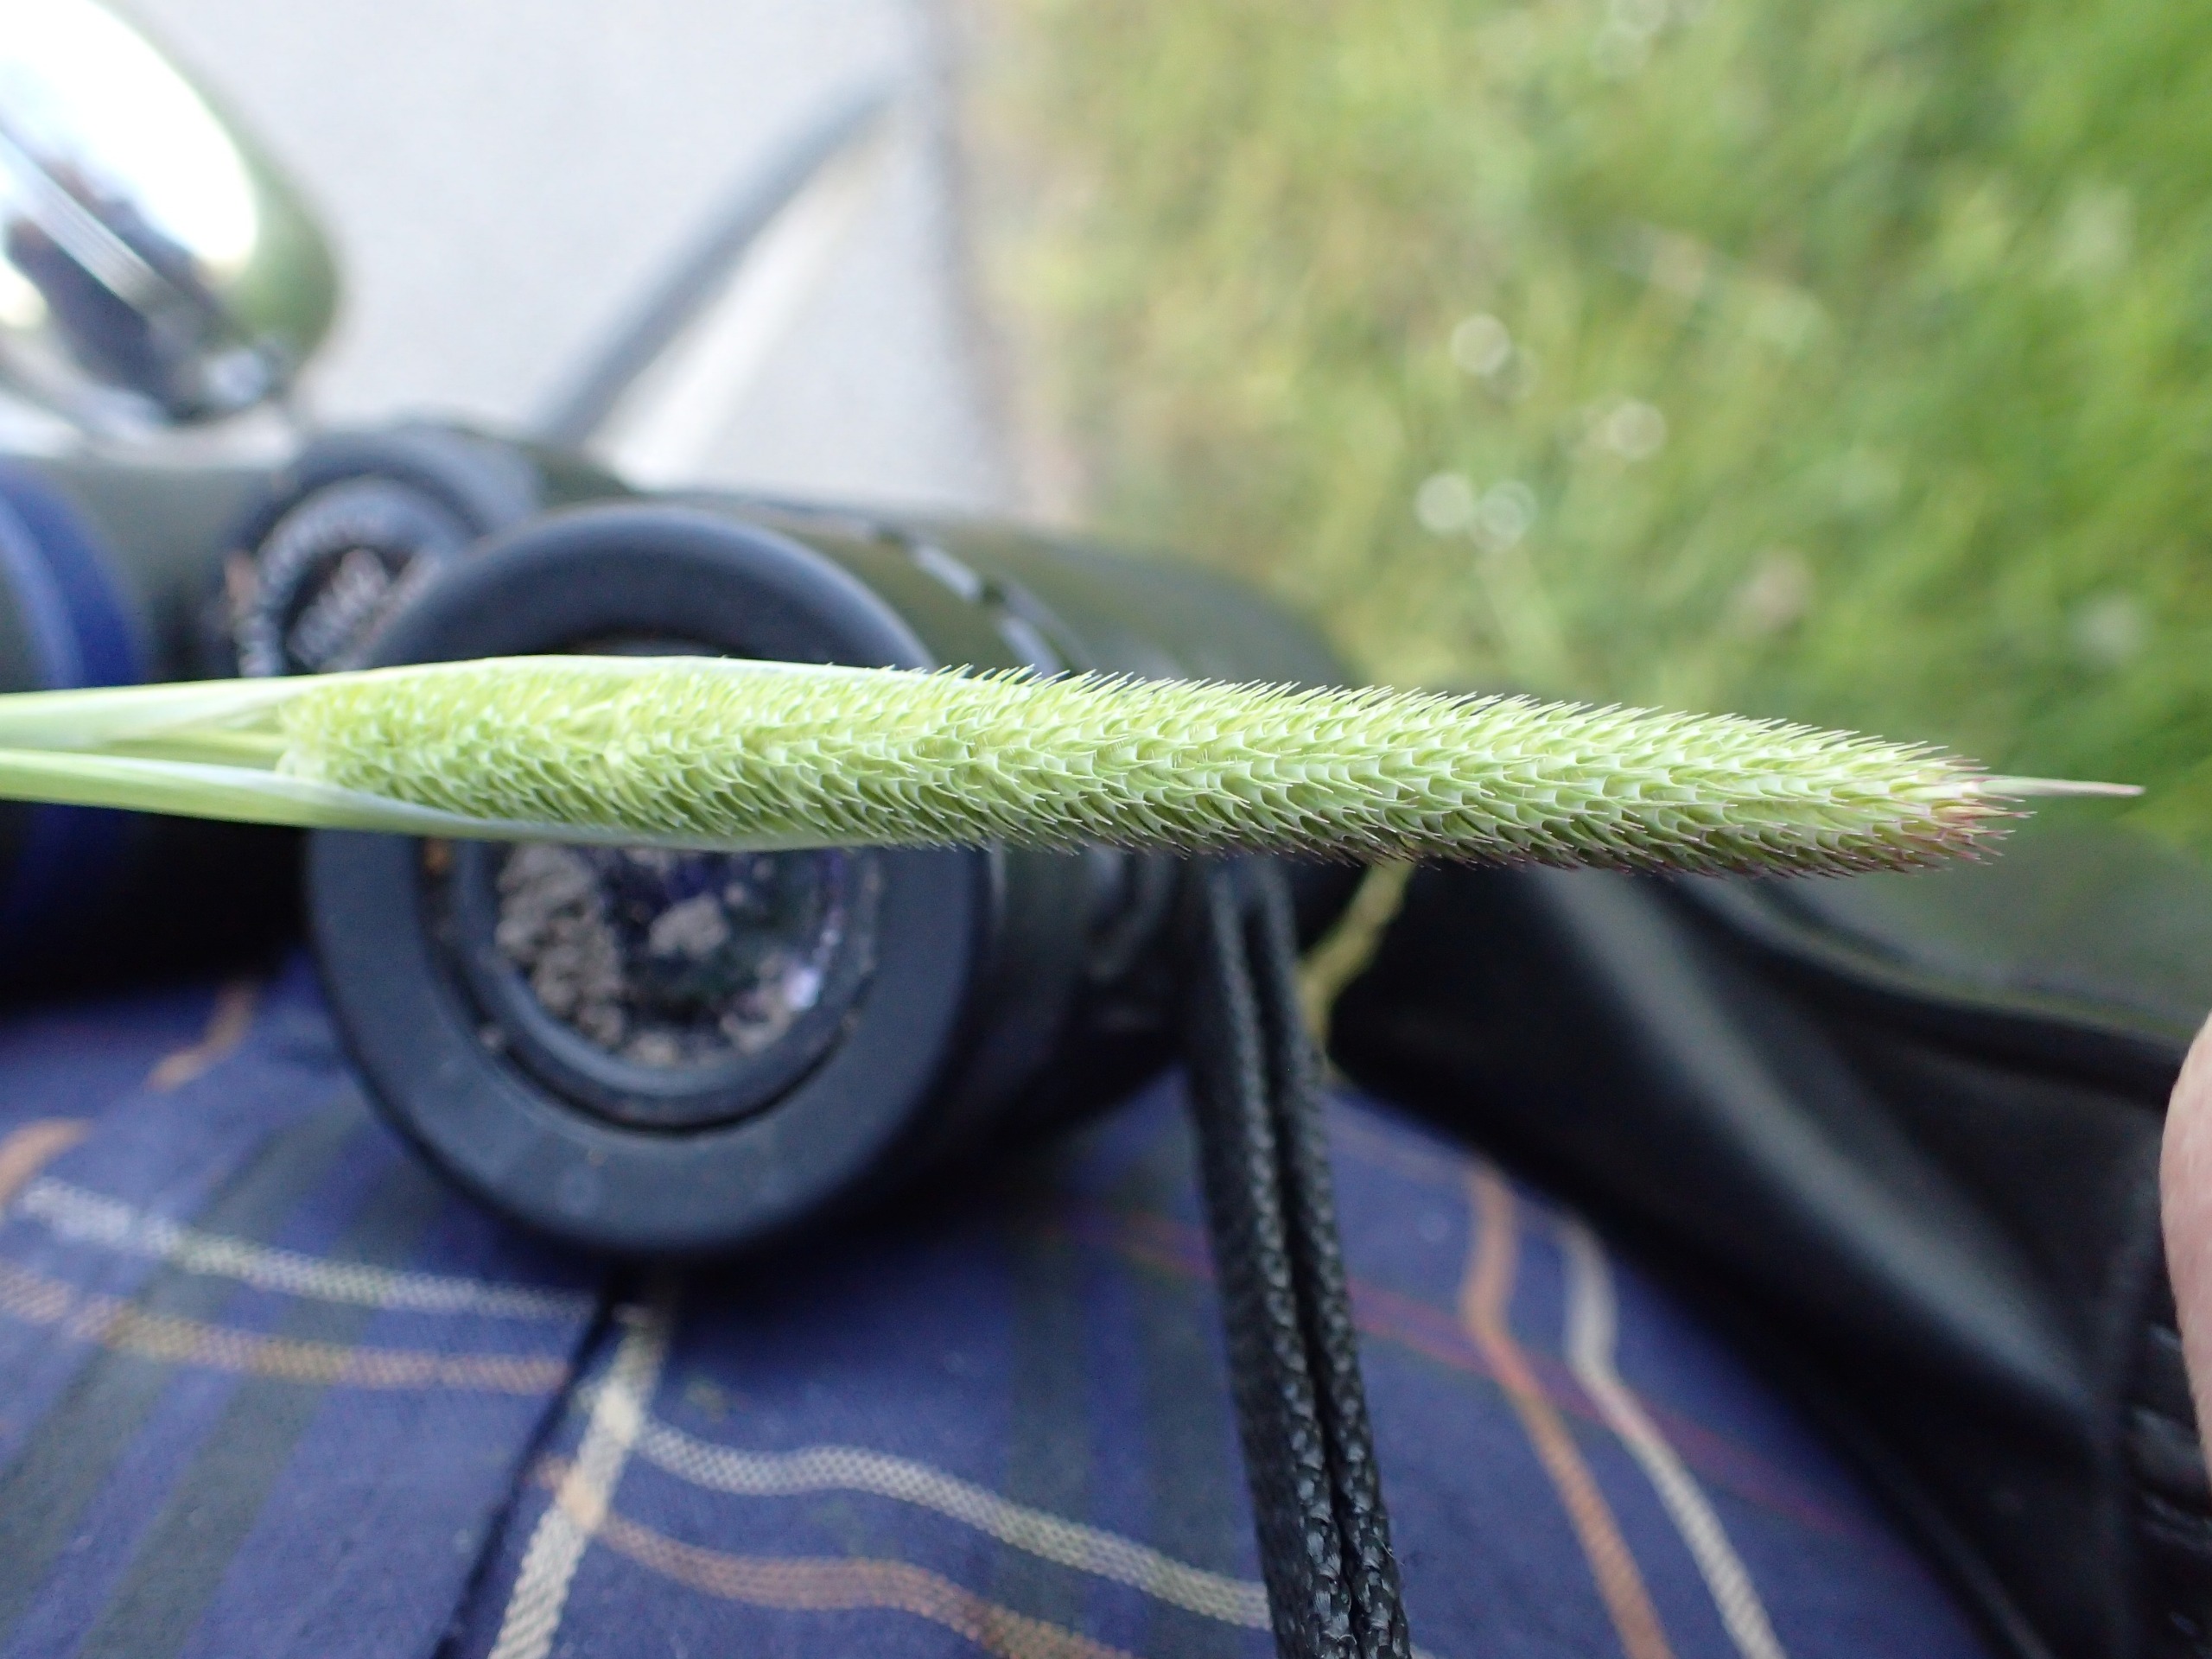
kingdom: Plantae
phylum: Tracheophyta
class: Liliopsida
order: Poales
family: Poaceae
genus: Phleum
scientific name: Phleum pratense
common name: Eng-rottehale
